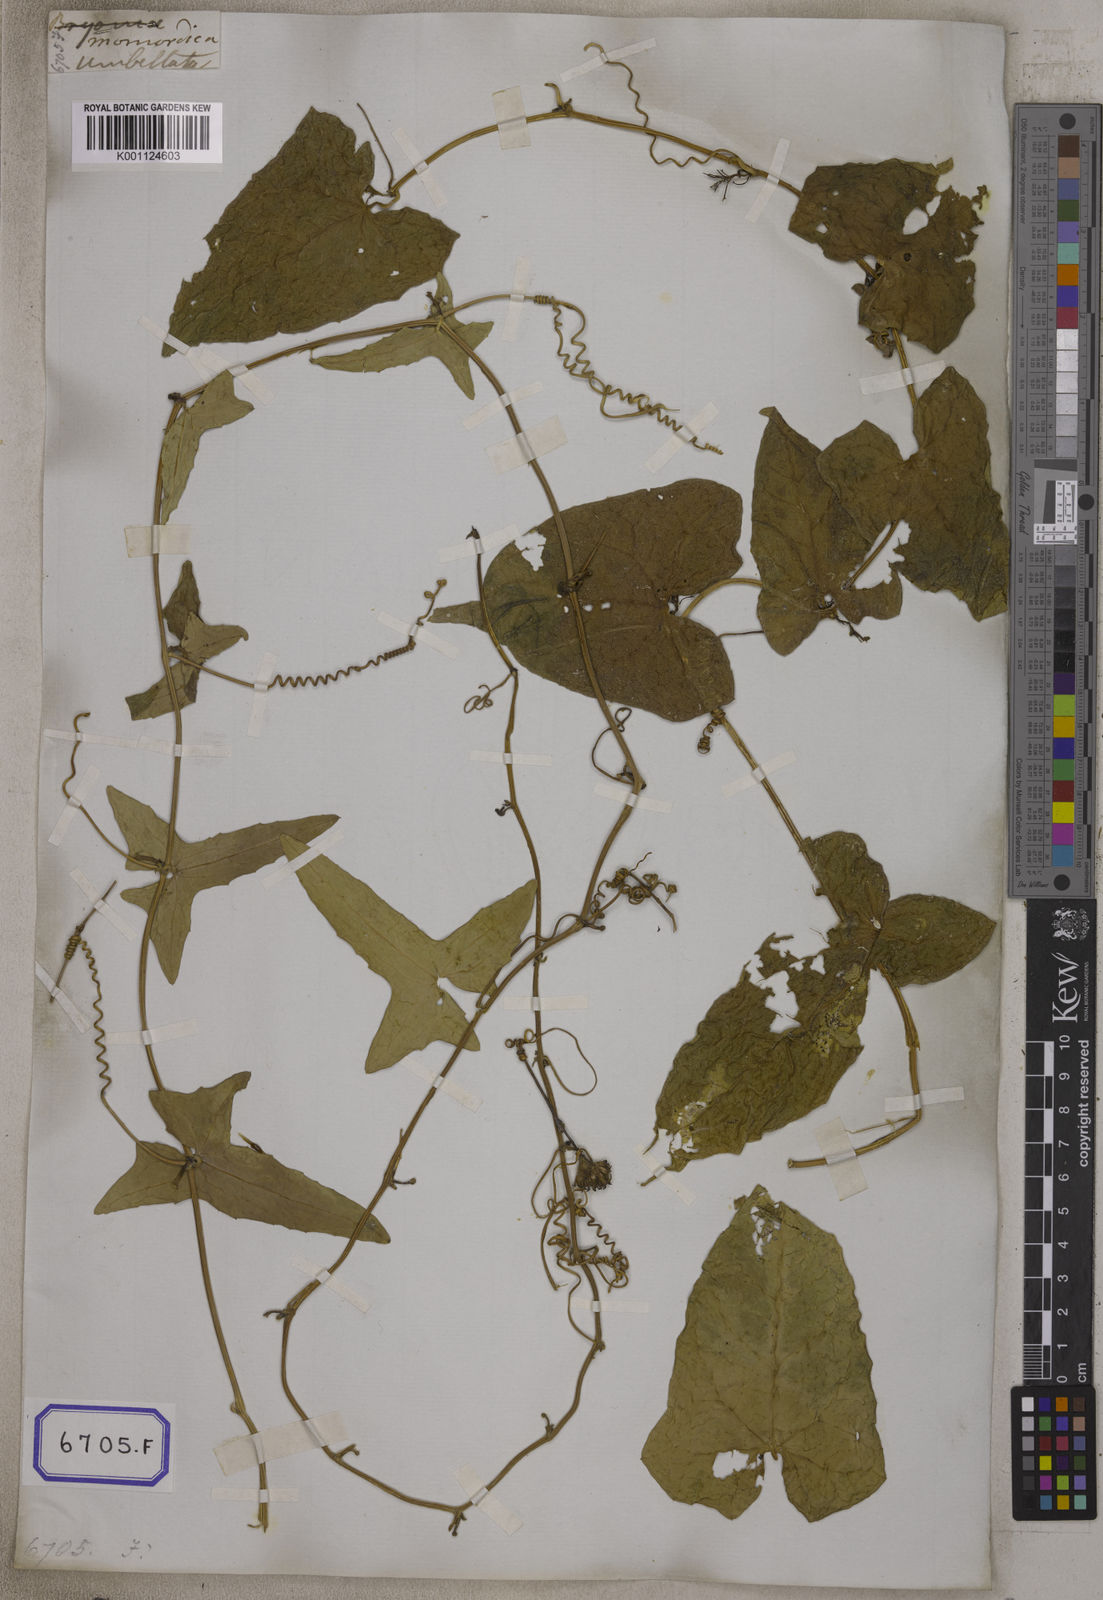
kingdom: Plantae
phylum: Tracheophyta
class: Magnoliopsida
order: Cucurbitales
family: Cucurbitaceae
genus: Bryonia
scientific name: Bryonia
